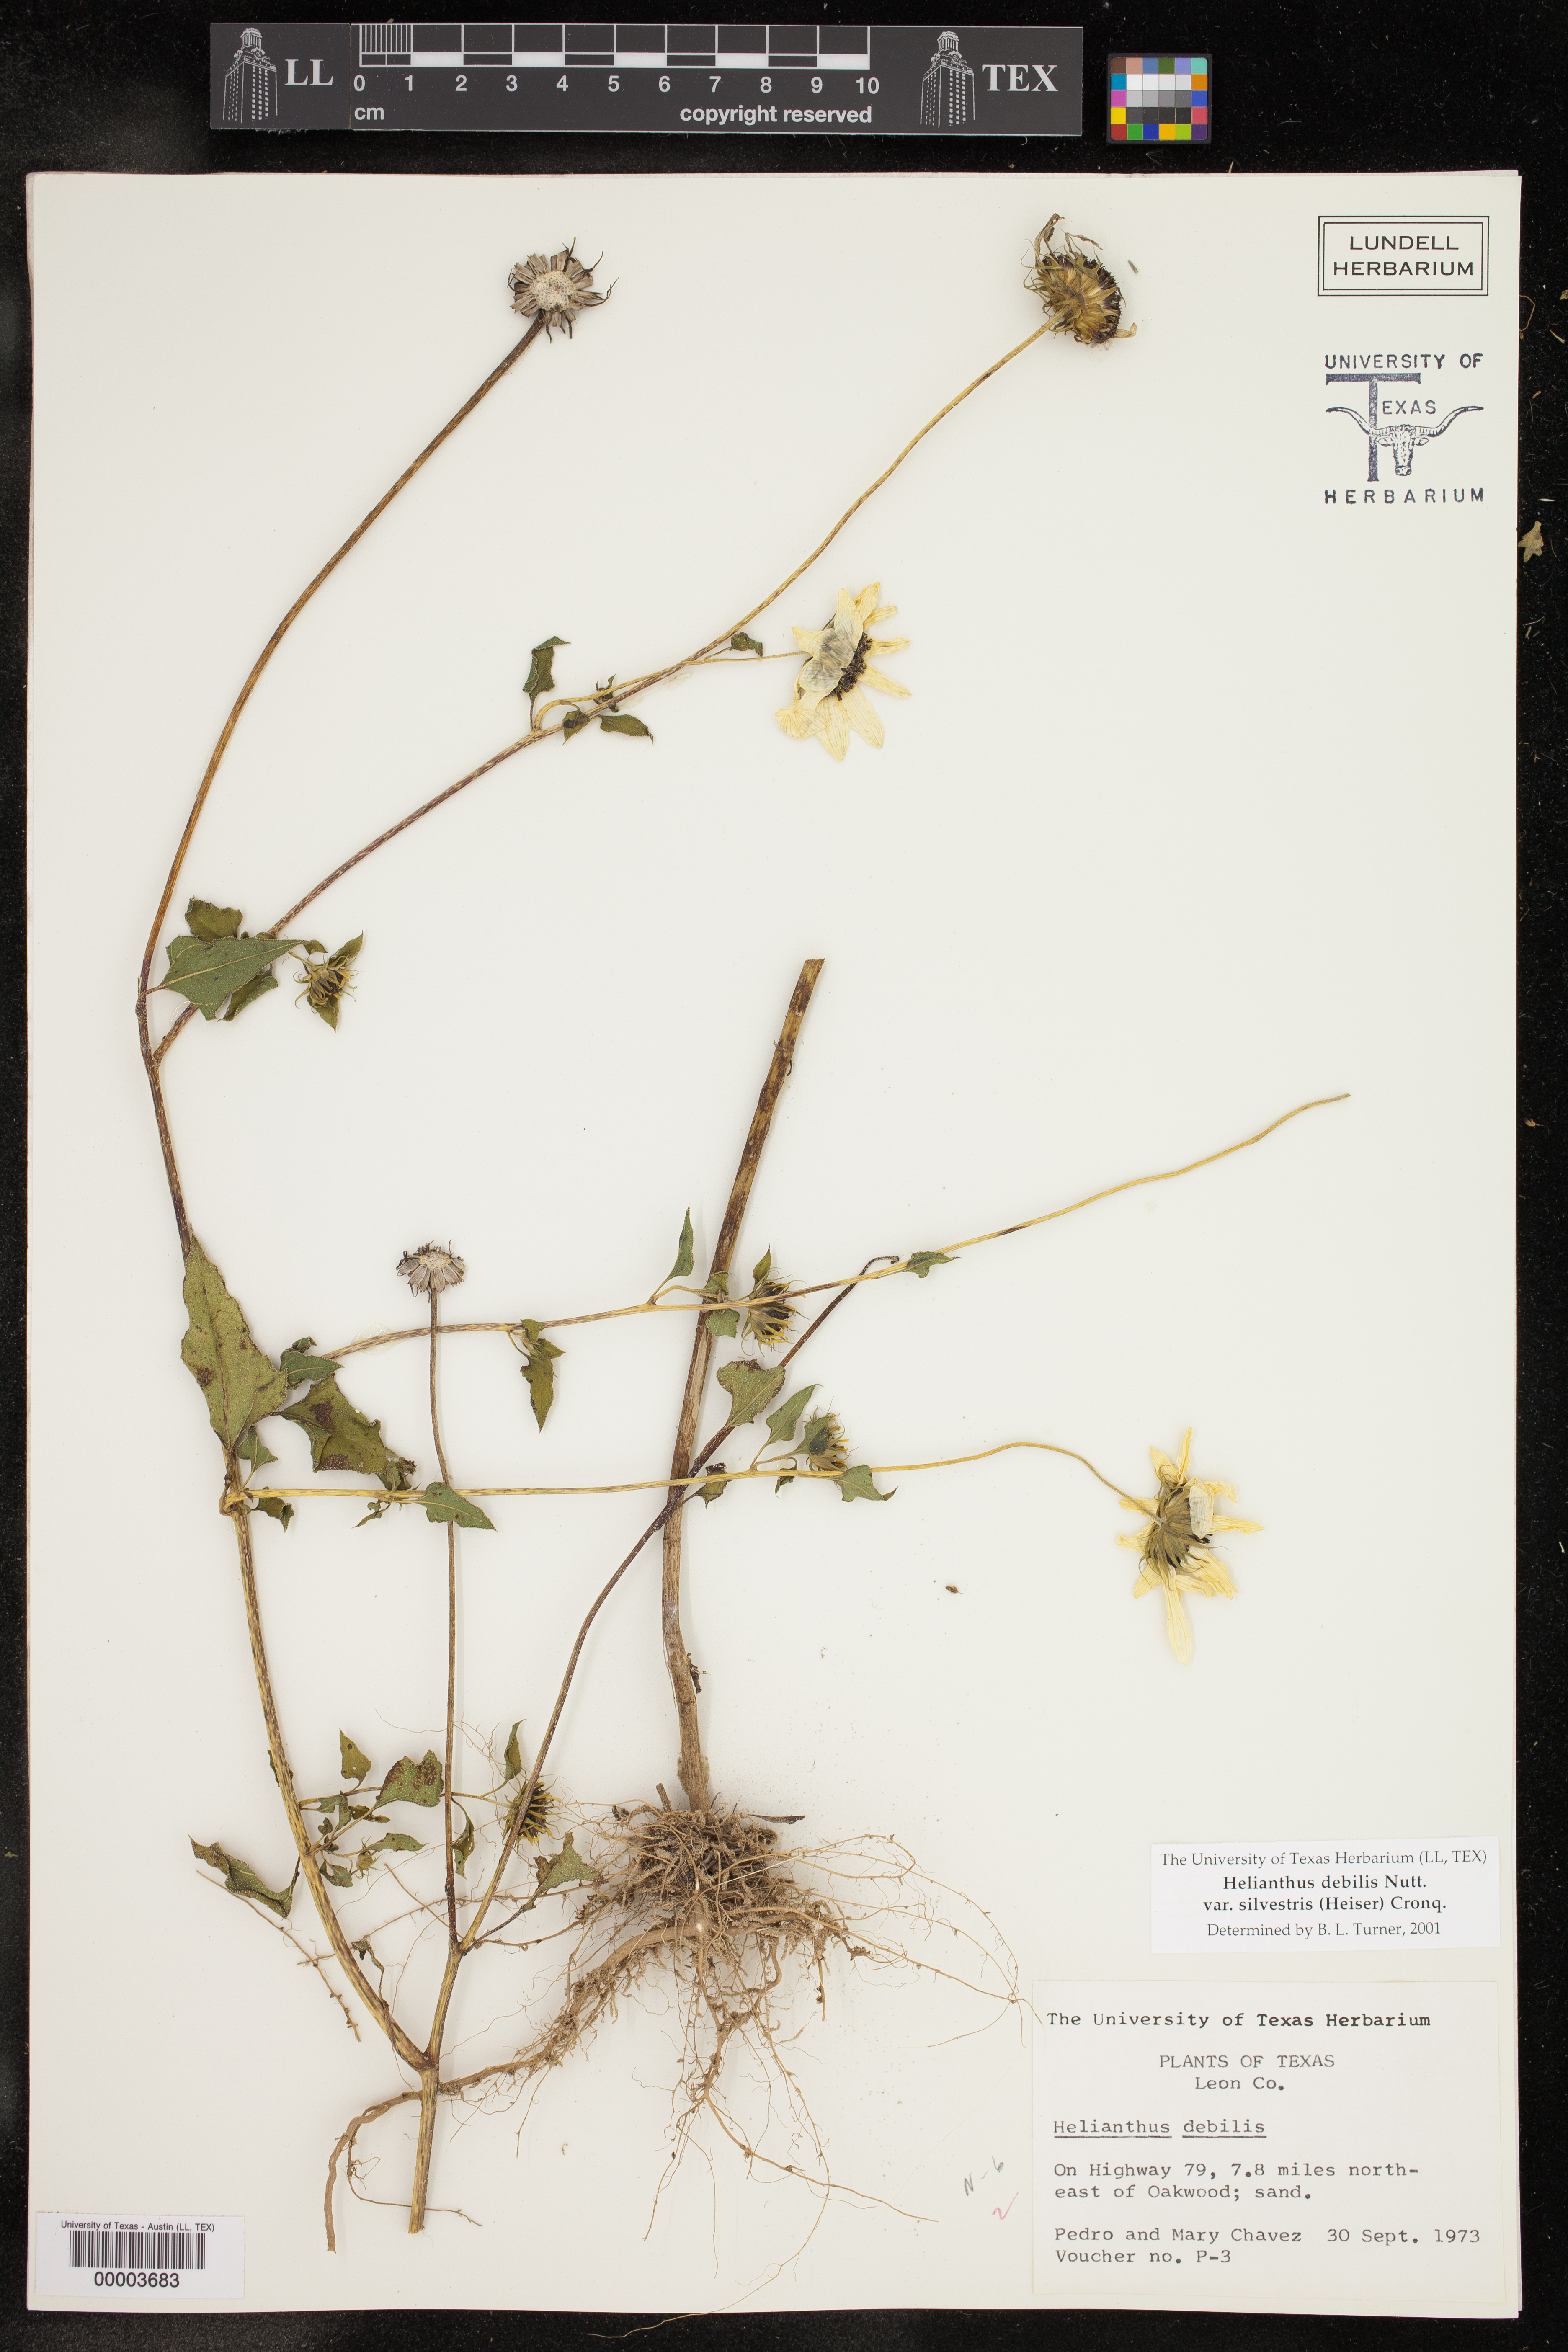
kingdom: Plantae
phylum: Tracheophyta
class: Magnoliopsida
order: Asterales
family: Asteraceae
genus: Helianthus
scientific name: Helianthus debilis
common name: Weak sunflower
